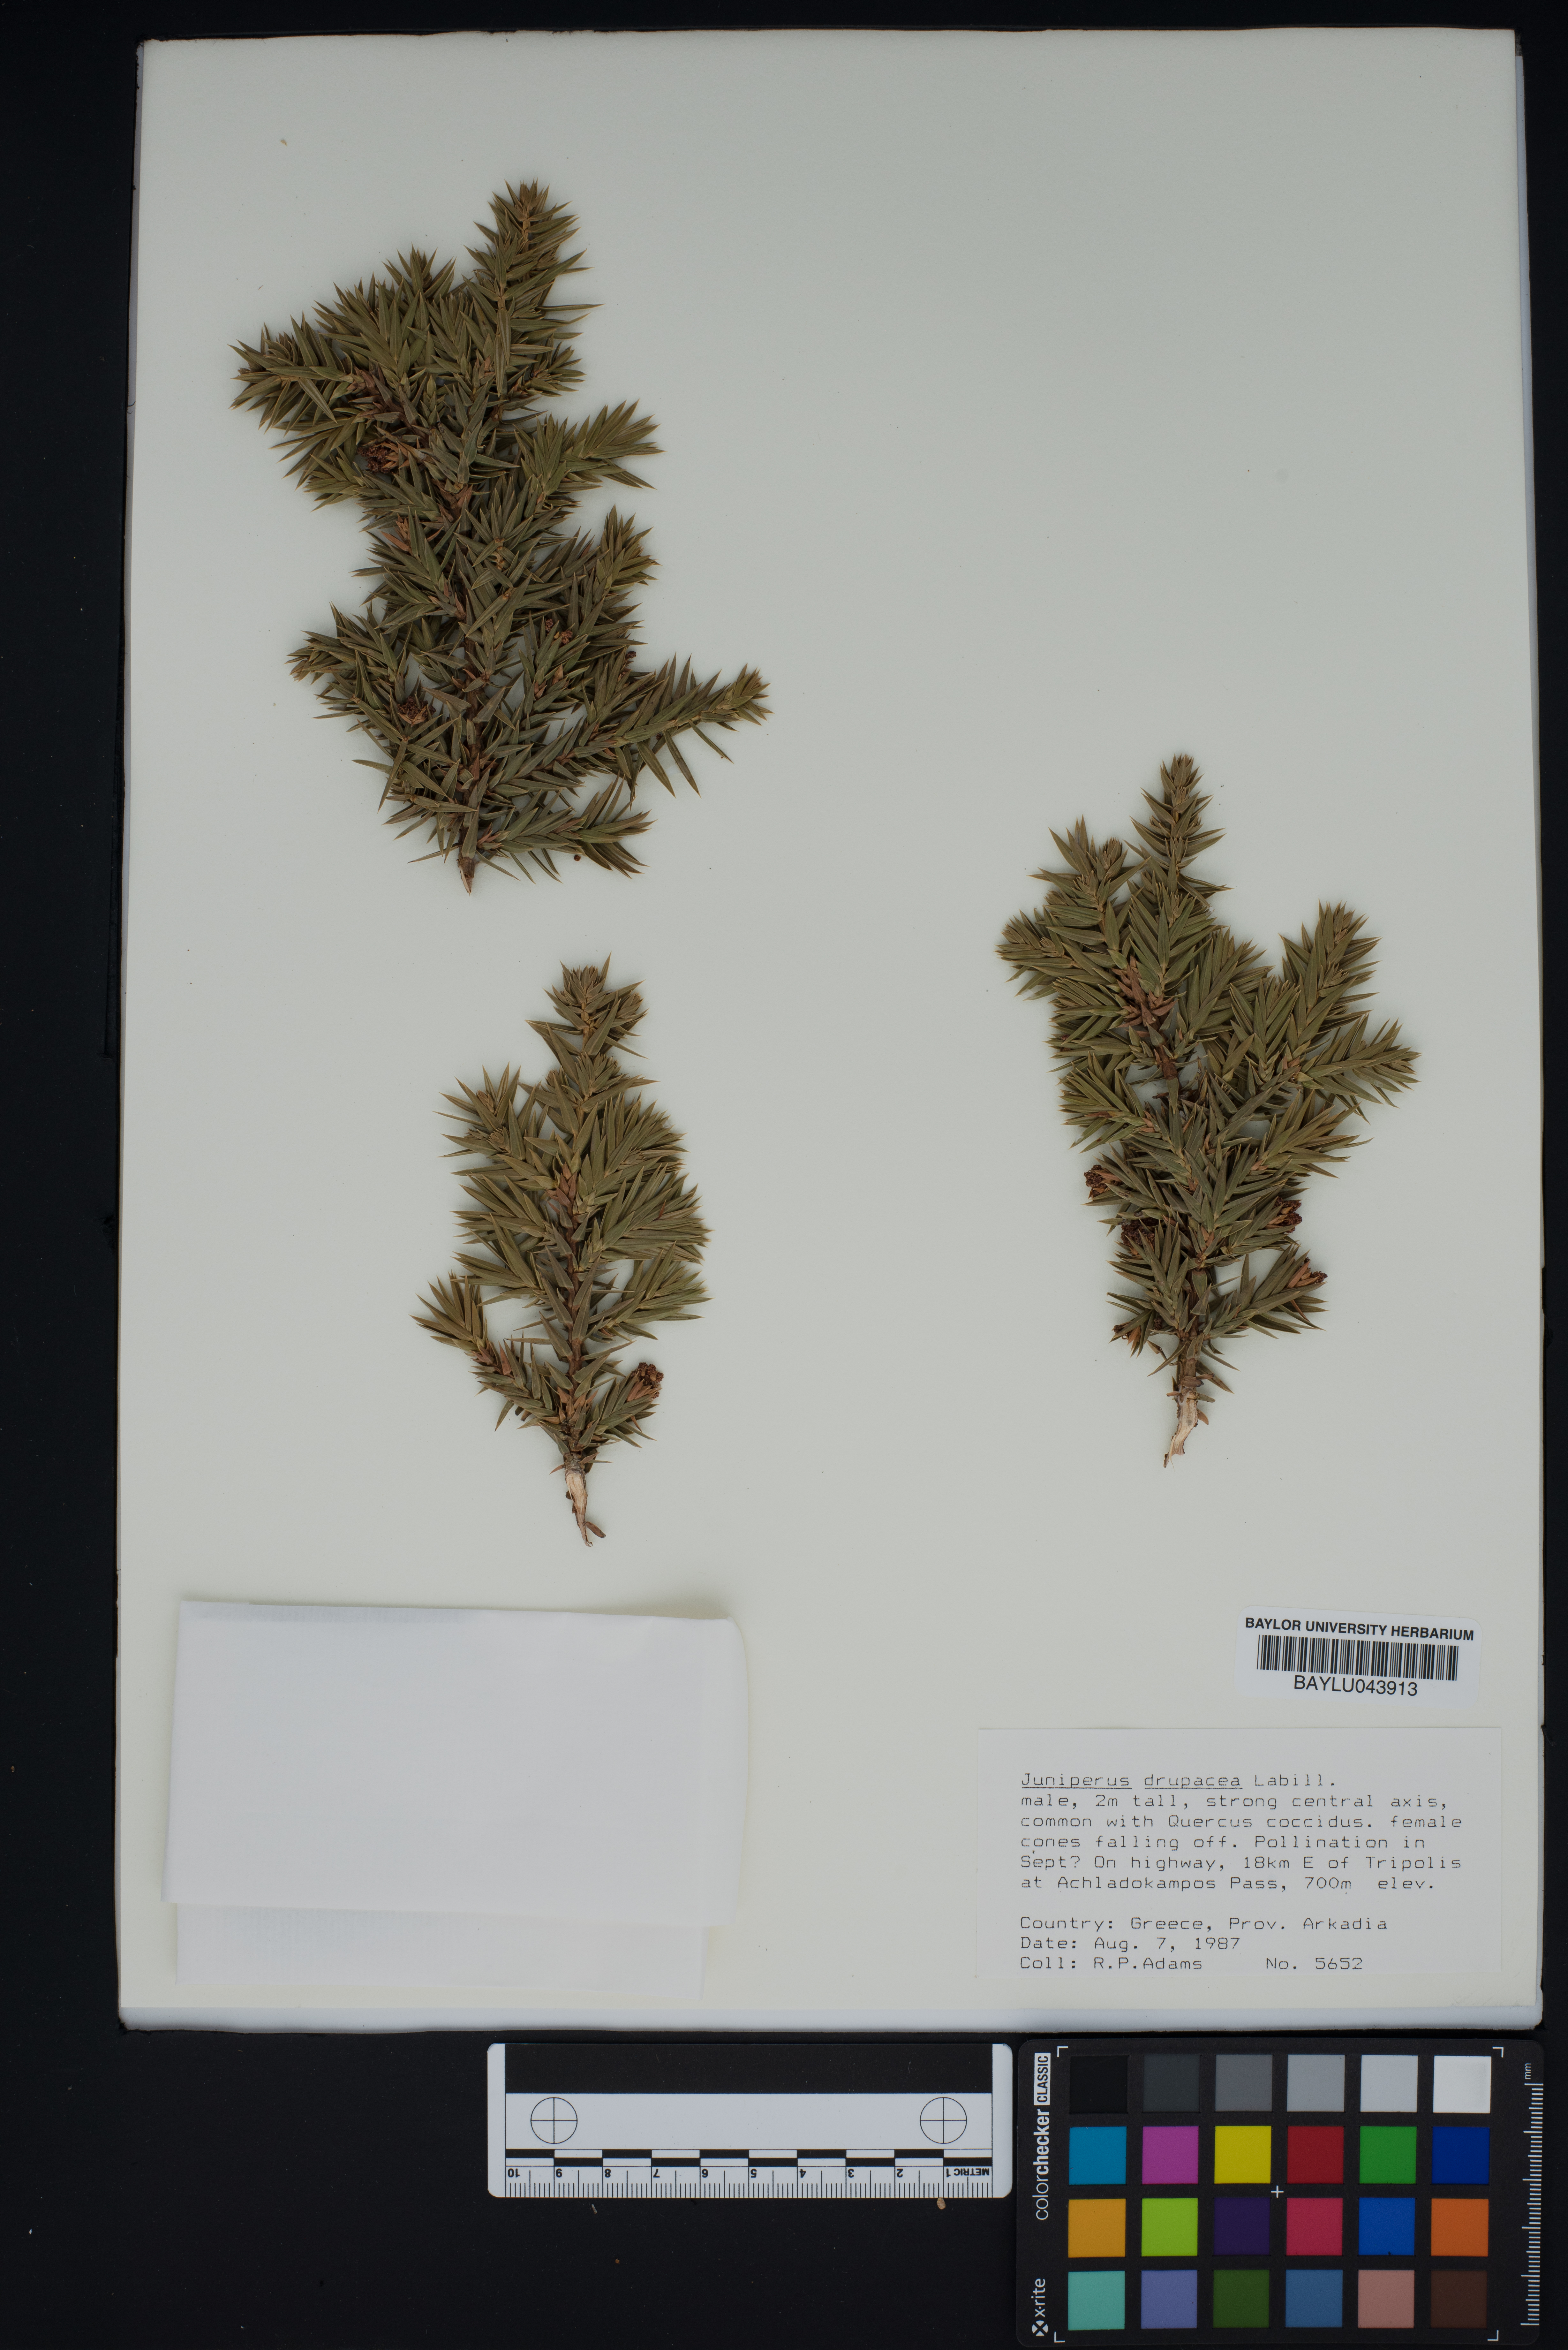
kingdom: Plantae
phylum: Tracheophyta
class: Pinopsida
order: Pinales
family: Cupressaceae
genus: Juniperus
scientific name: Juniperus drupacea
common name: Syrian juniper
